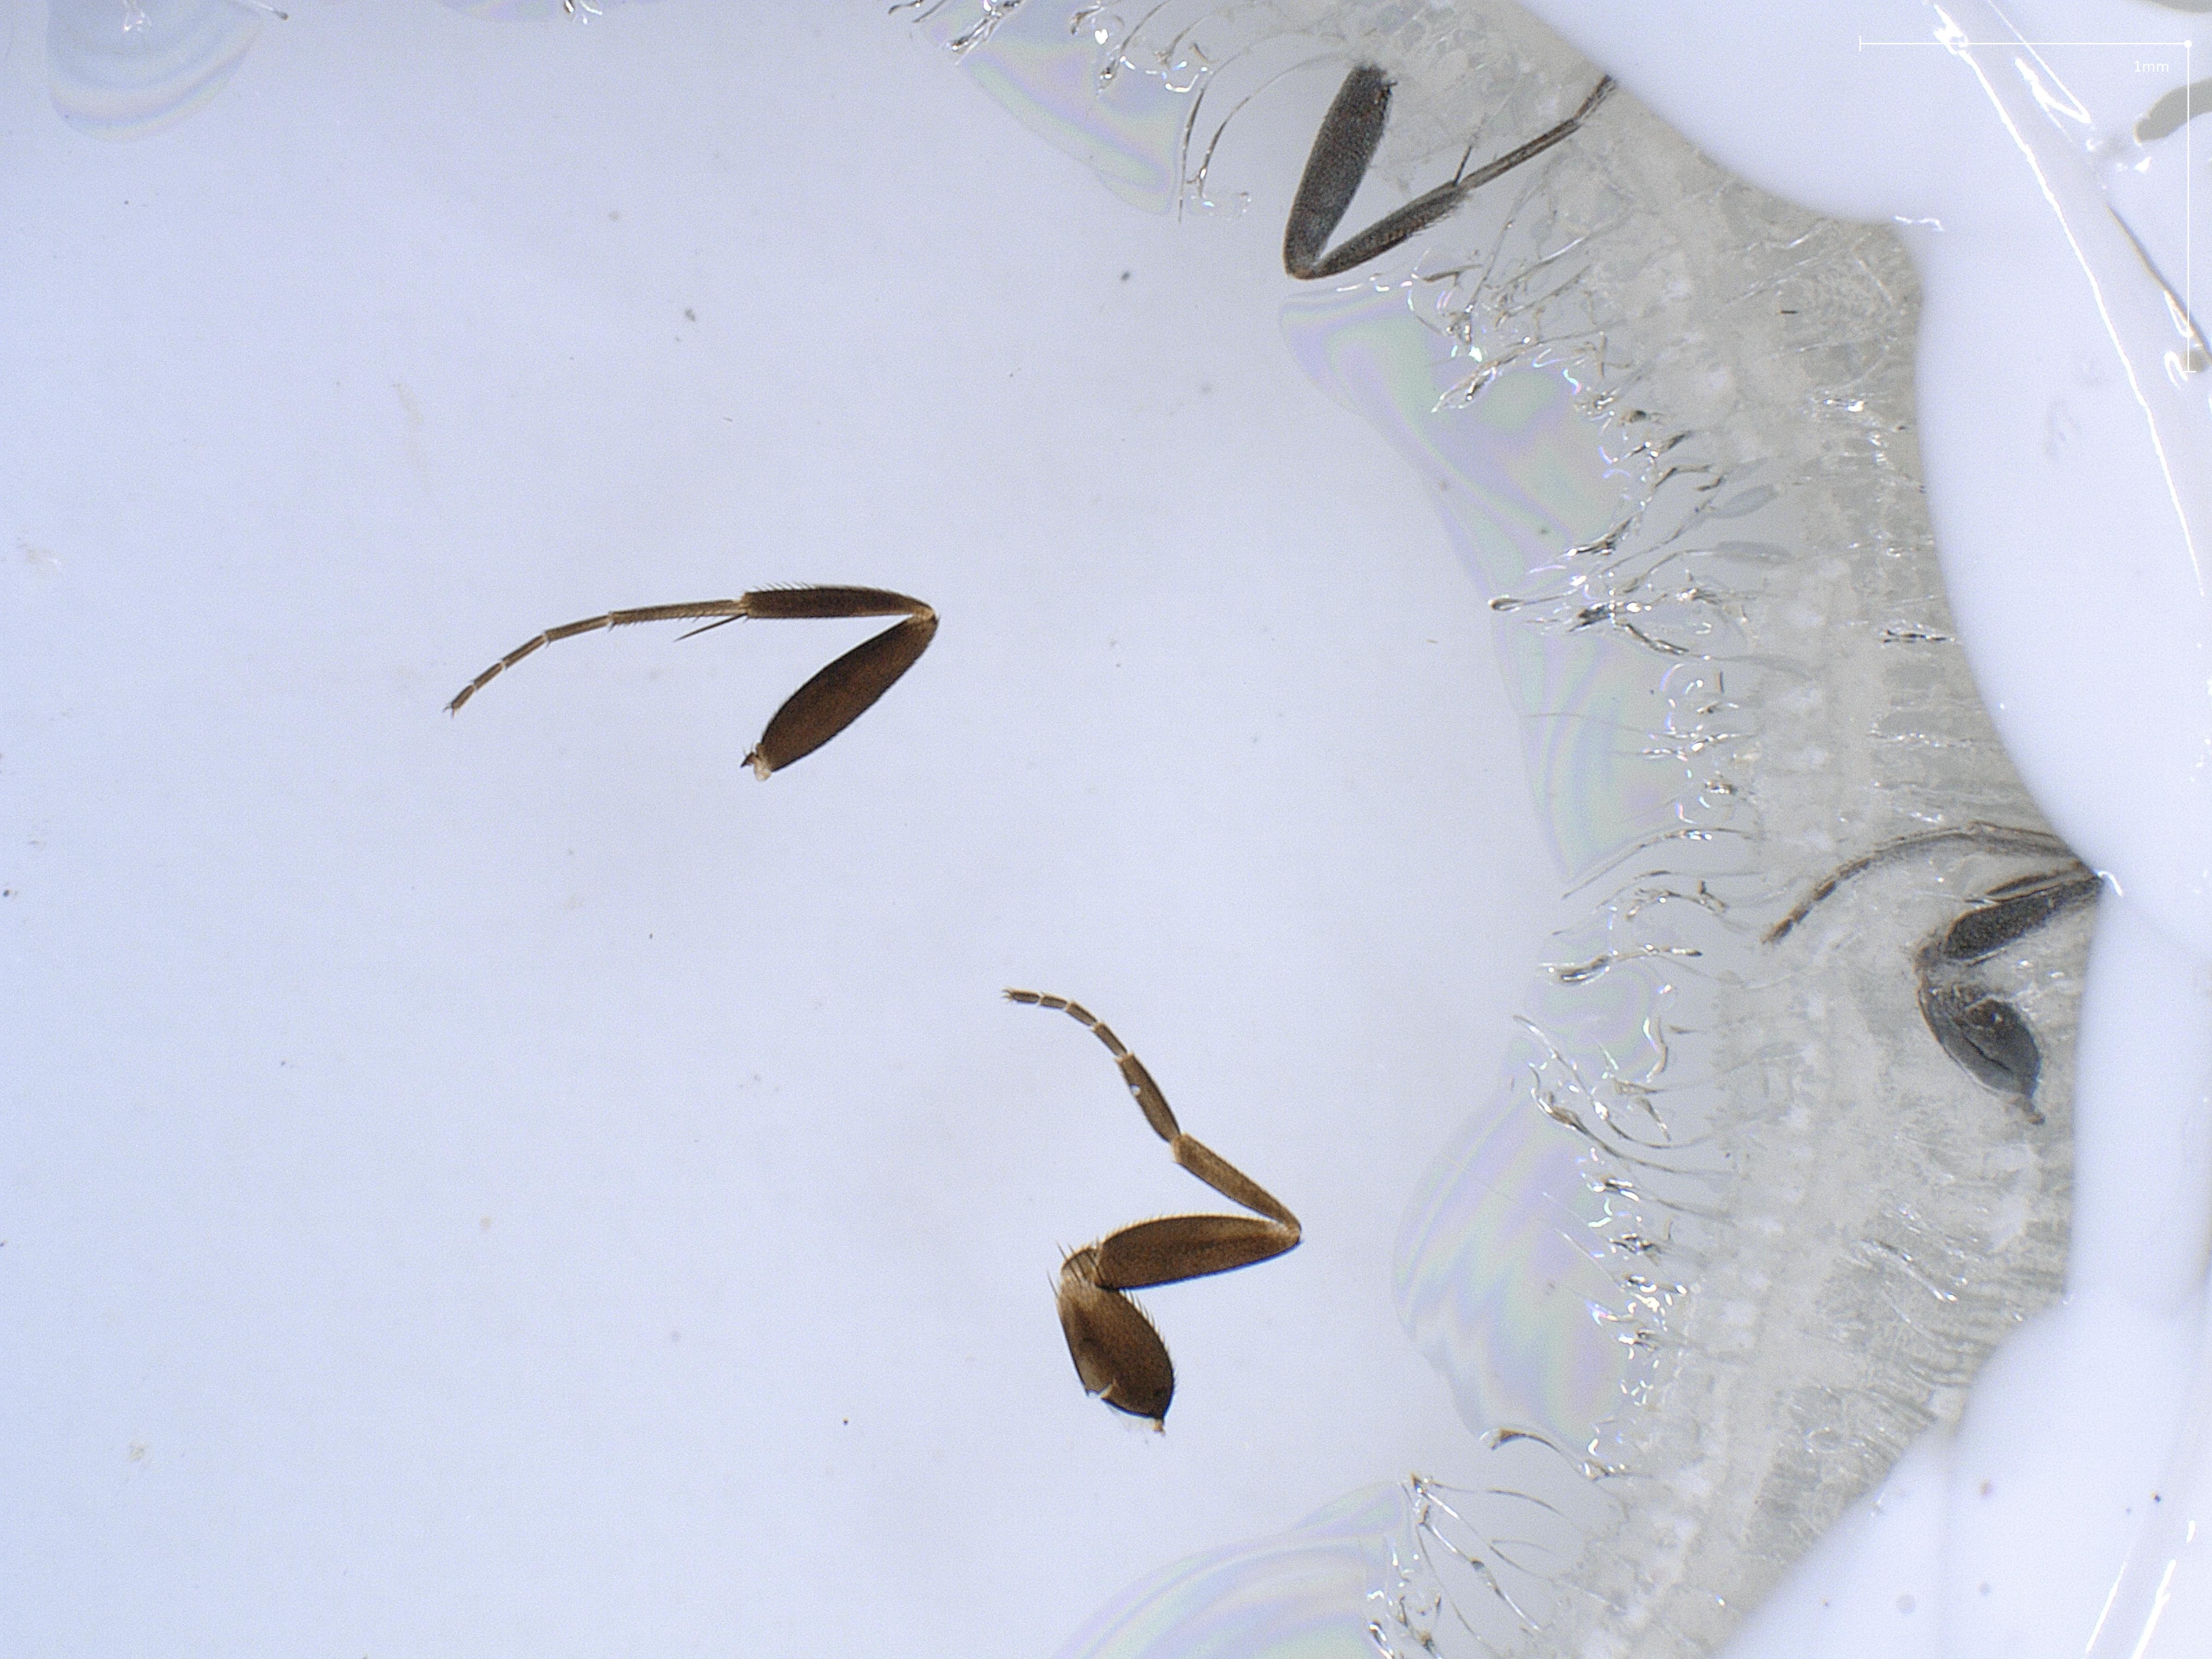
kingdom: Animalia
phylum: Arthropoda
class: Insecta
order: Diptera
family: Phoridae
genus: Megaselia
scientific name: Megaselia sericata
